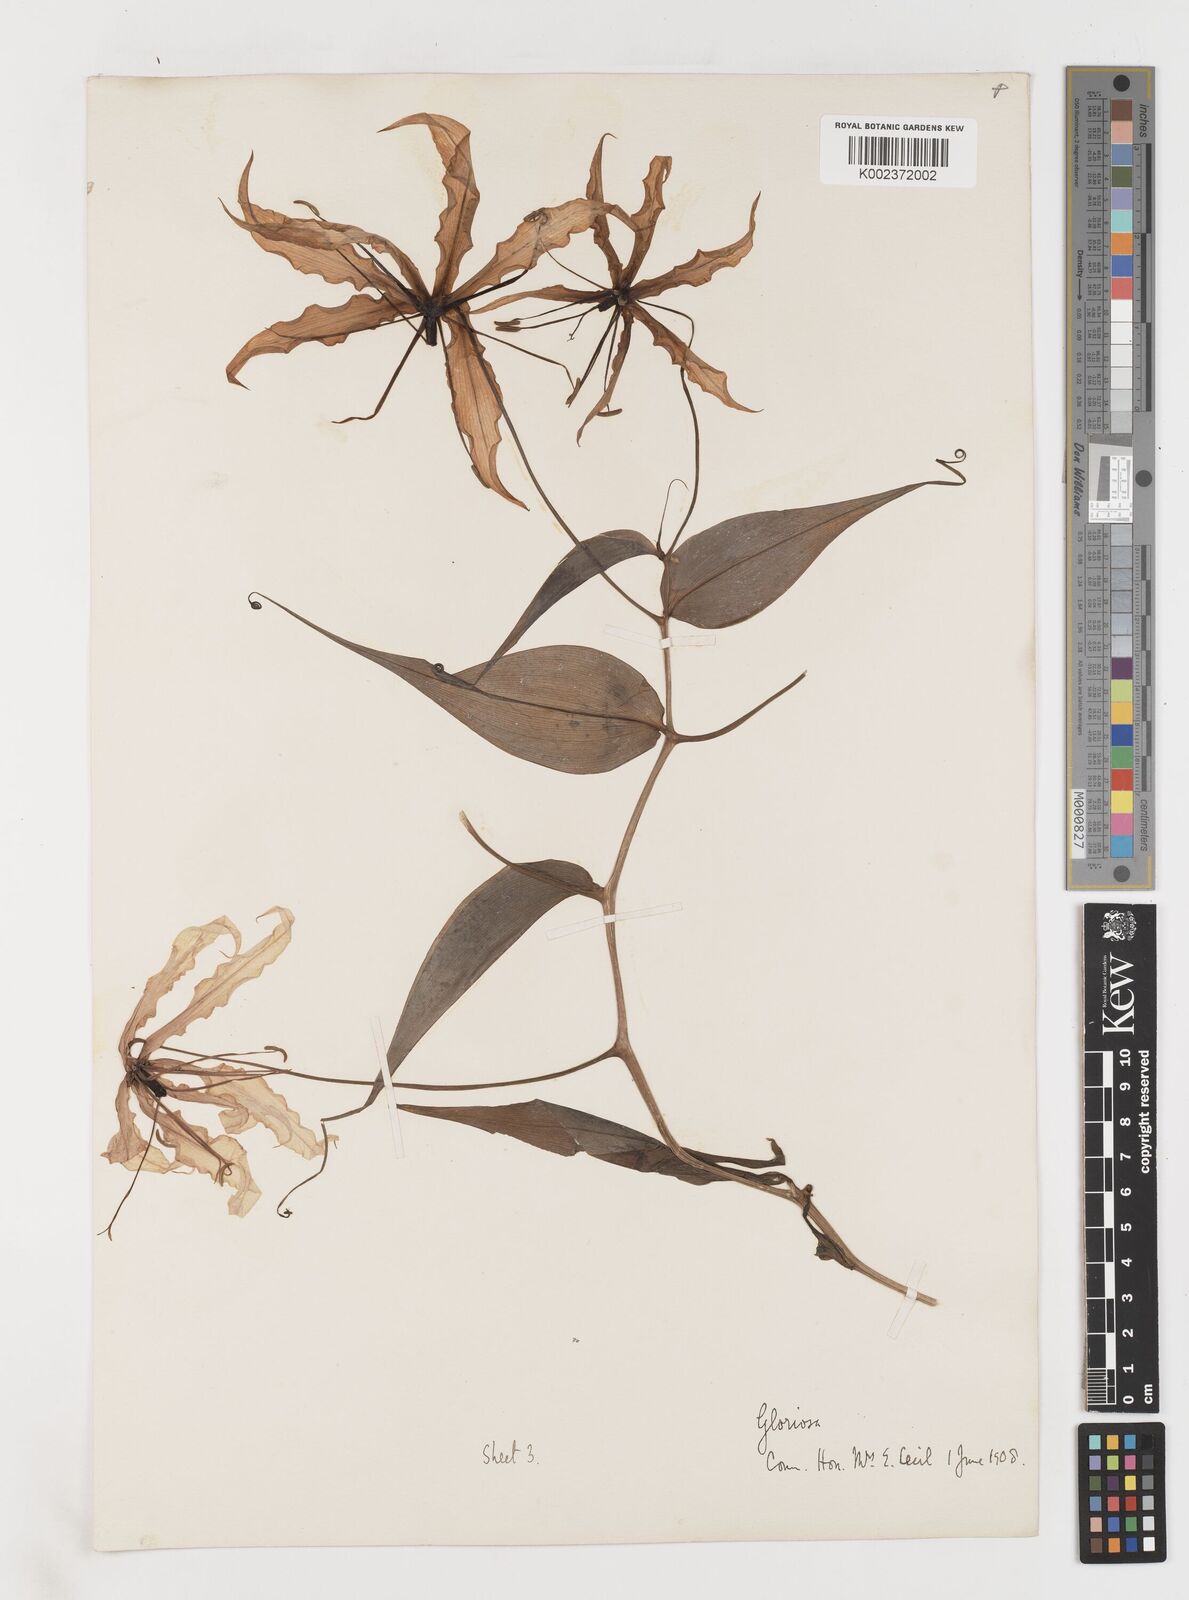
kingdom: Plantae
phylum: Tracheophyta
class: Liliopsida
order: Liliales
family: Colchicaceae
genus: Gloriosa
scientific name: Gloriosa superba
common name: Flame lily
